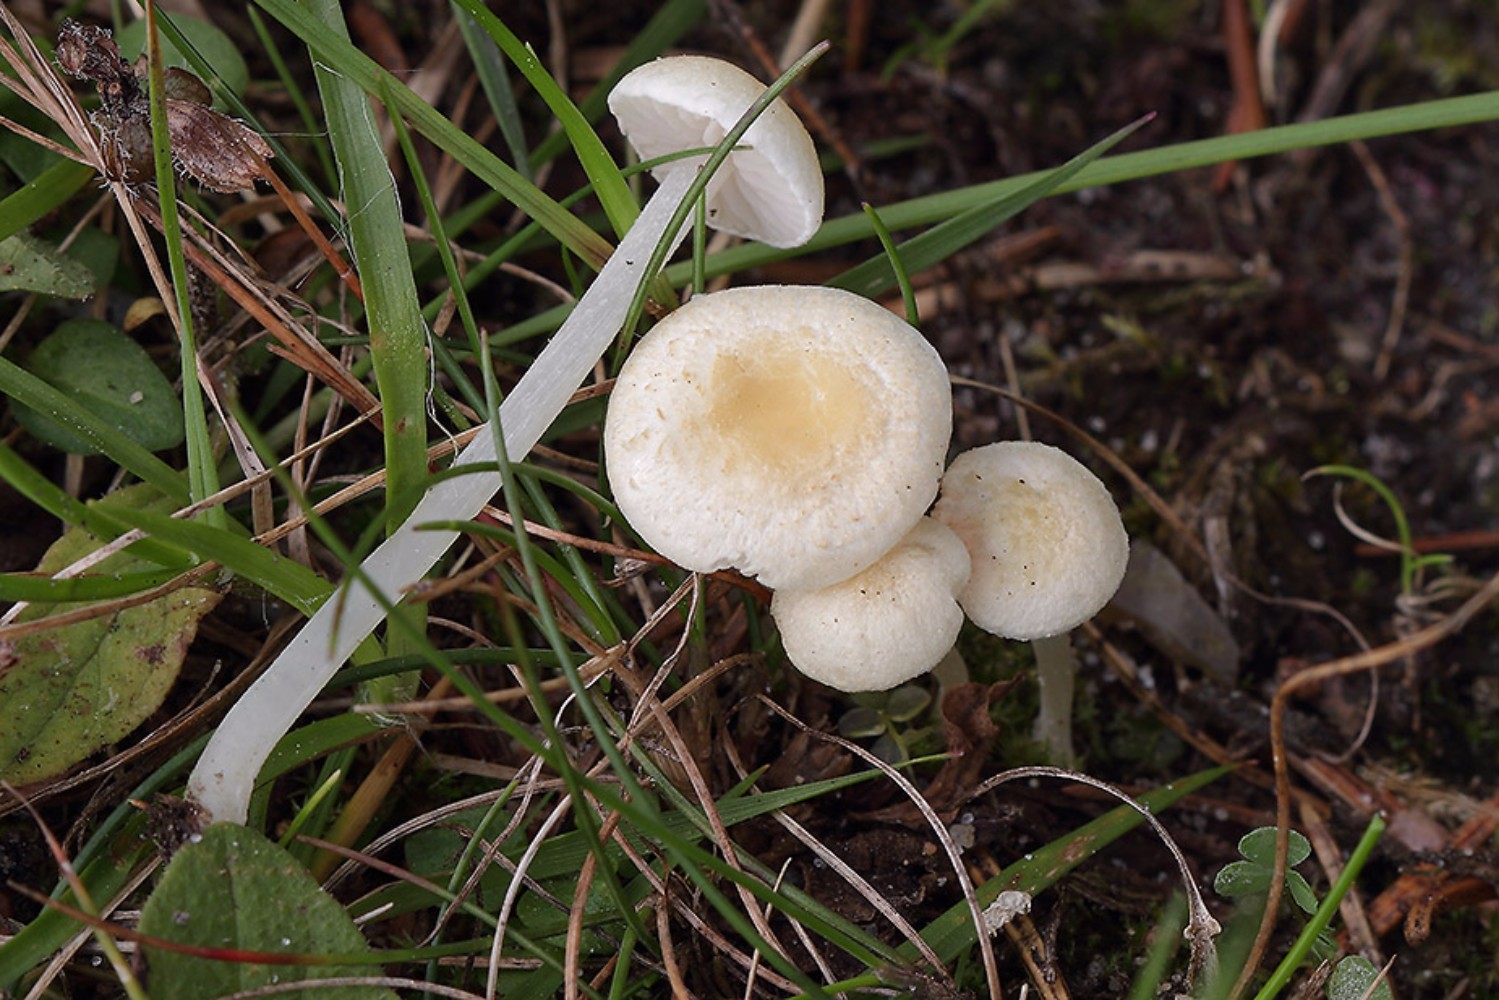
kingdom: Fungi
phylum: Basidiomycota
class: Agaricomycetes
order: Agaricales
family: Entolomataceae
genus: Entoloma
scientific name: Entoloma sericellum
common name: silkehvid rødblad
